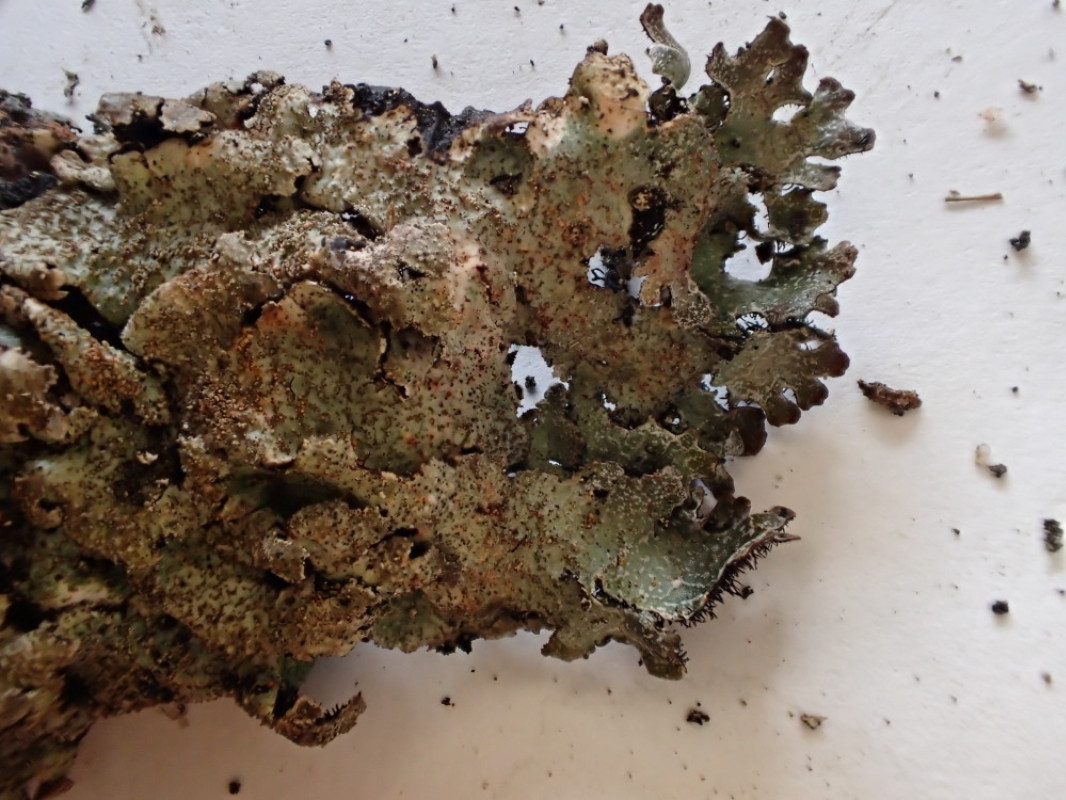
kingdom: Fungi
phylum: Ascomycota
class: Lecanoromycetes
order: Lecanorales
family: Parmeliaceae
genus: Parmelia
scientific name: Parmelia omphalodes
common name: bronze-skållav
